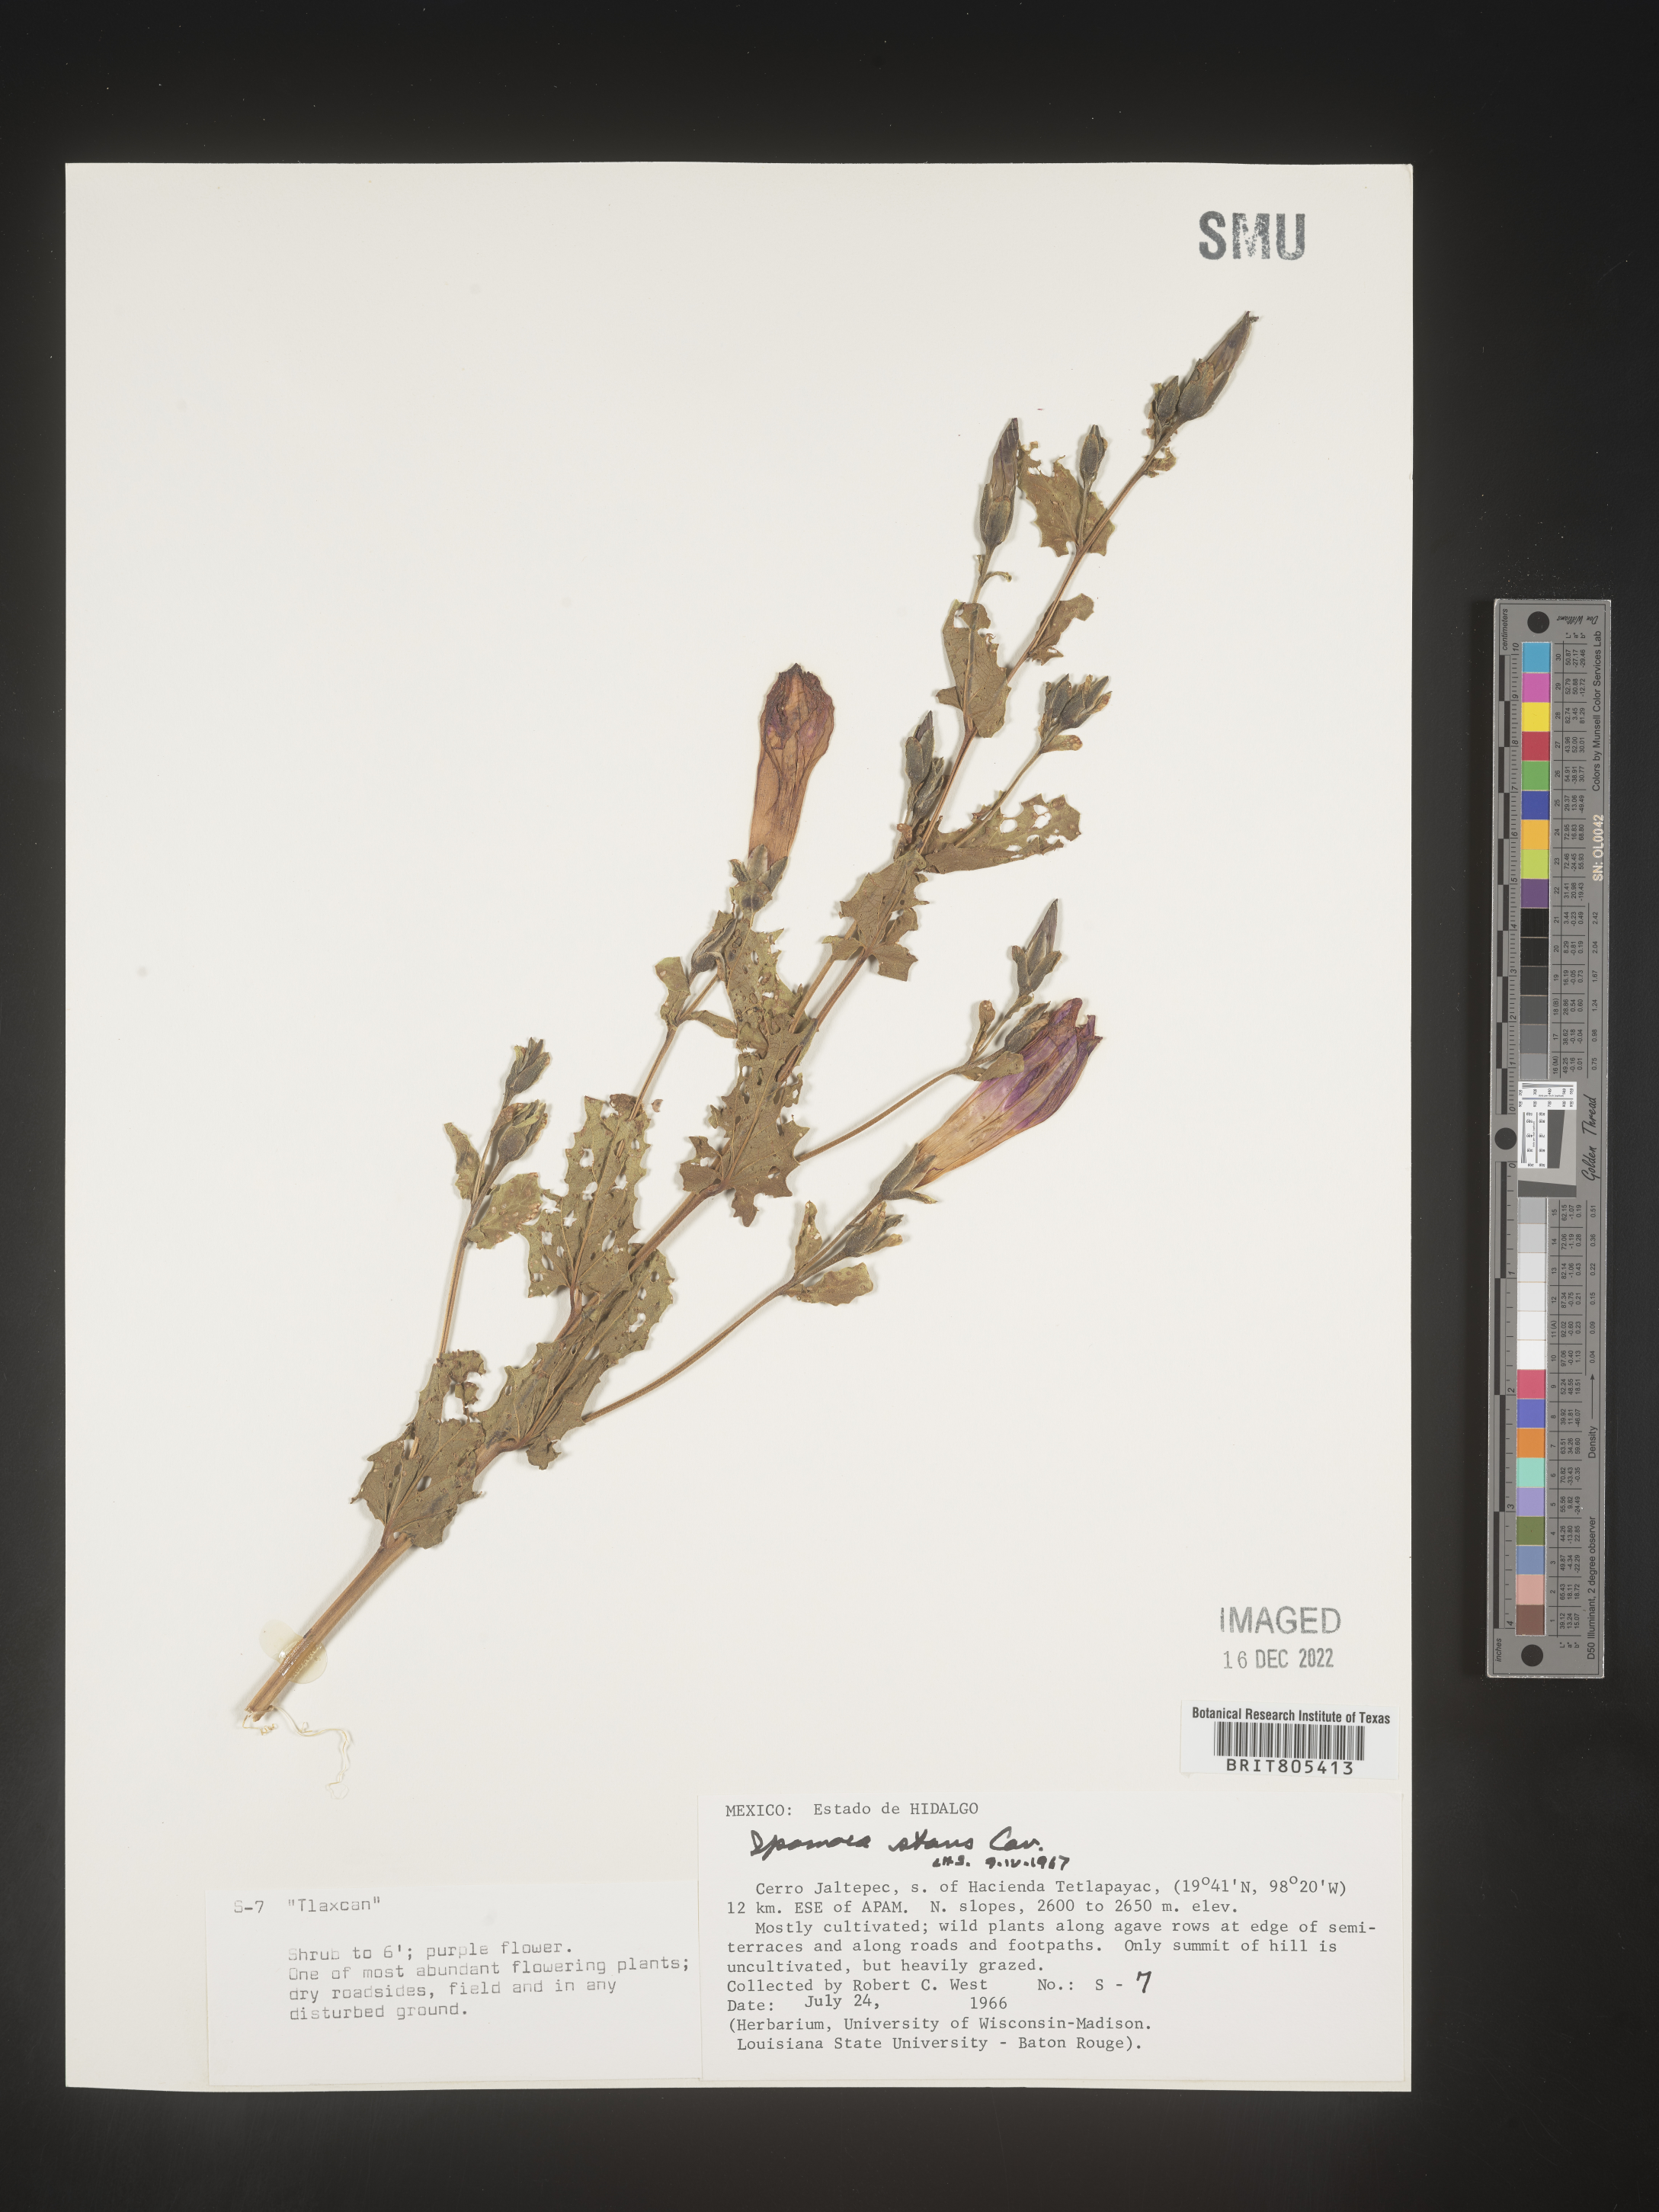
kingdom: Plantae
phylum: Tracheophyta
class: Magnoliopsida
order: Solanales
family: Convolvulaceae
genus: Ipomoea
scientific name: Ipomoea
